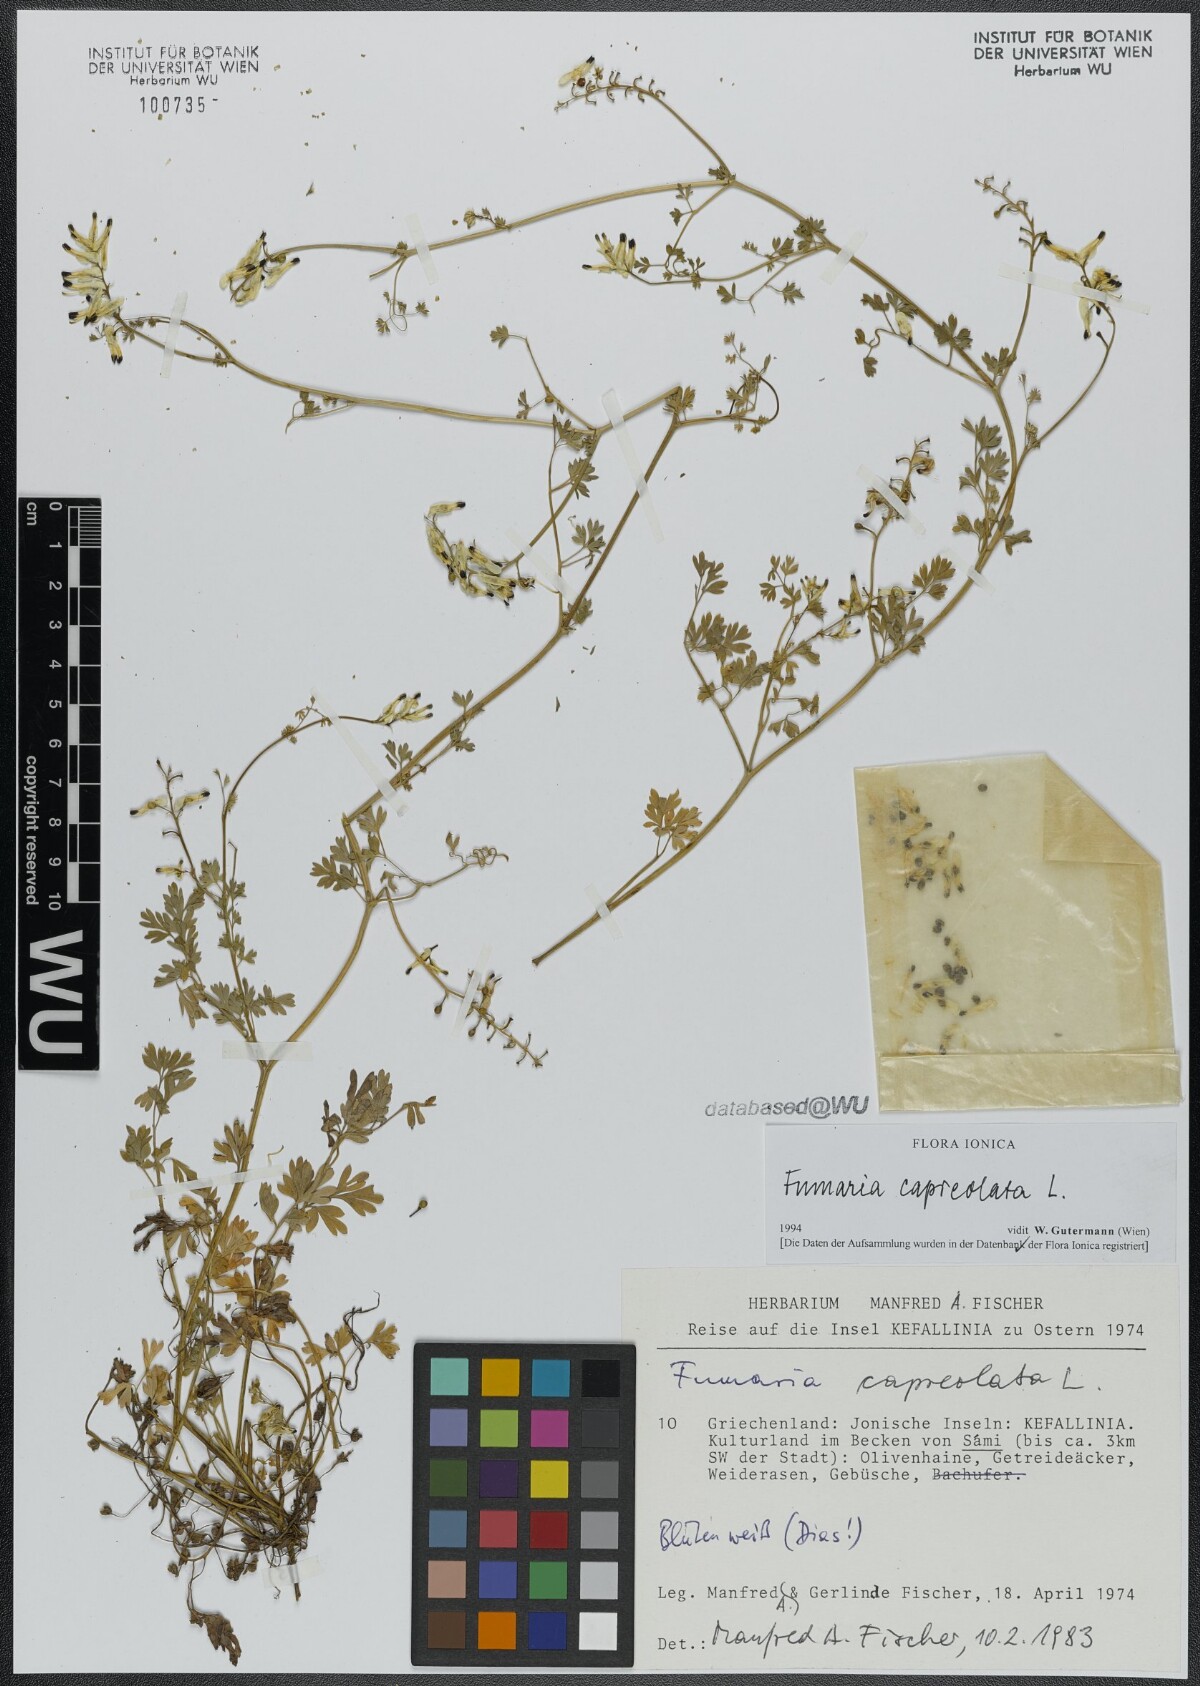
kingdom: Plantae
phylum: Tracheophyta
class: Magnoliopsida
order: Ranunculales
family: Papaveraceae
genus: Fumaria
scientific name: Fumaria capreolata
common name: White ramping-fumitory
